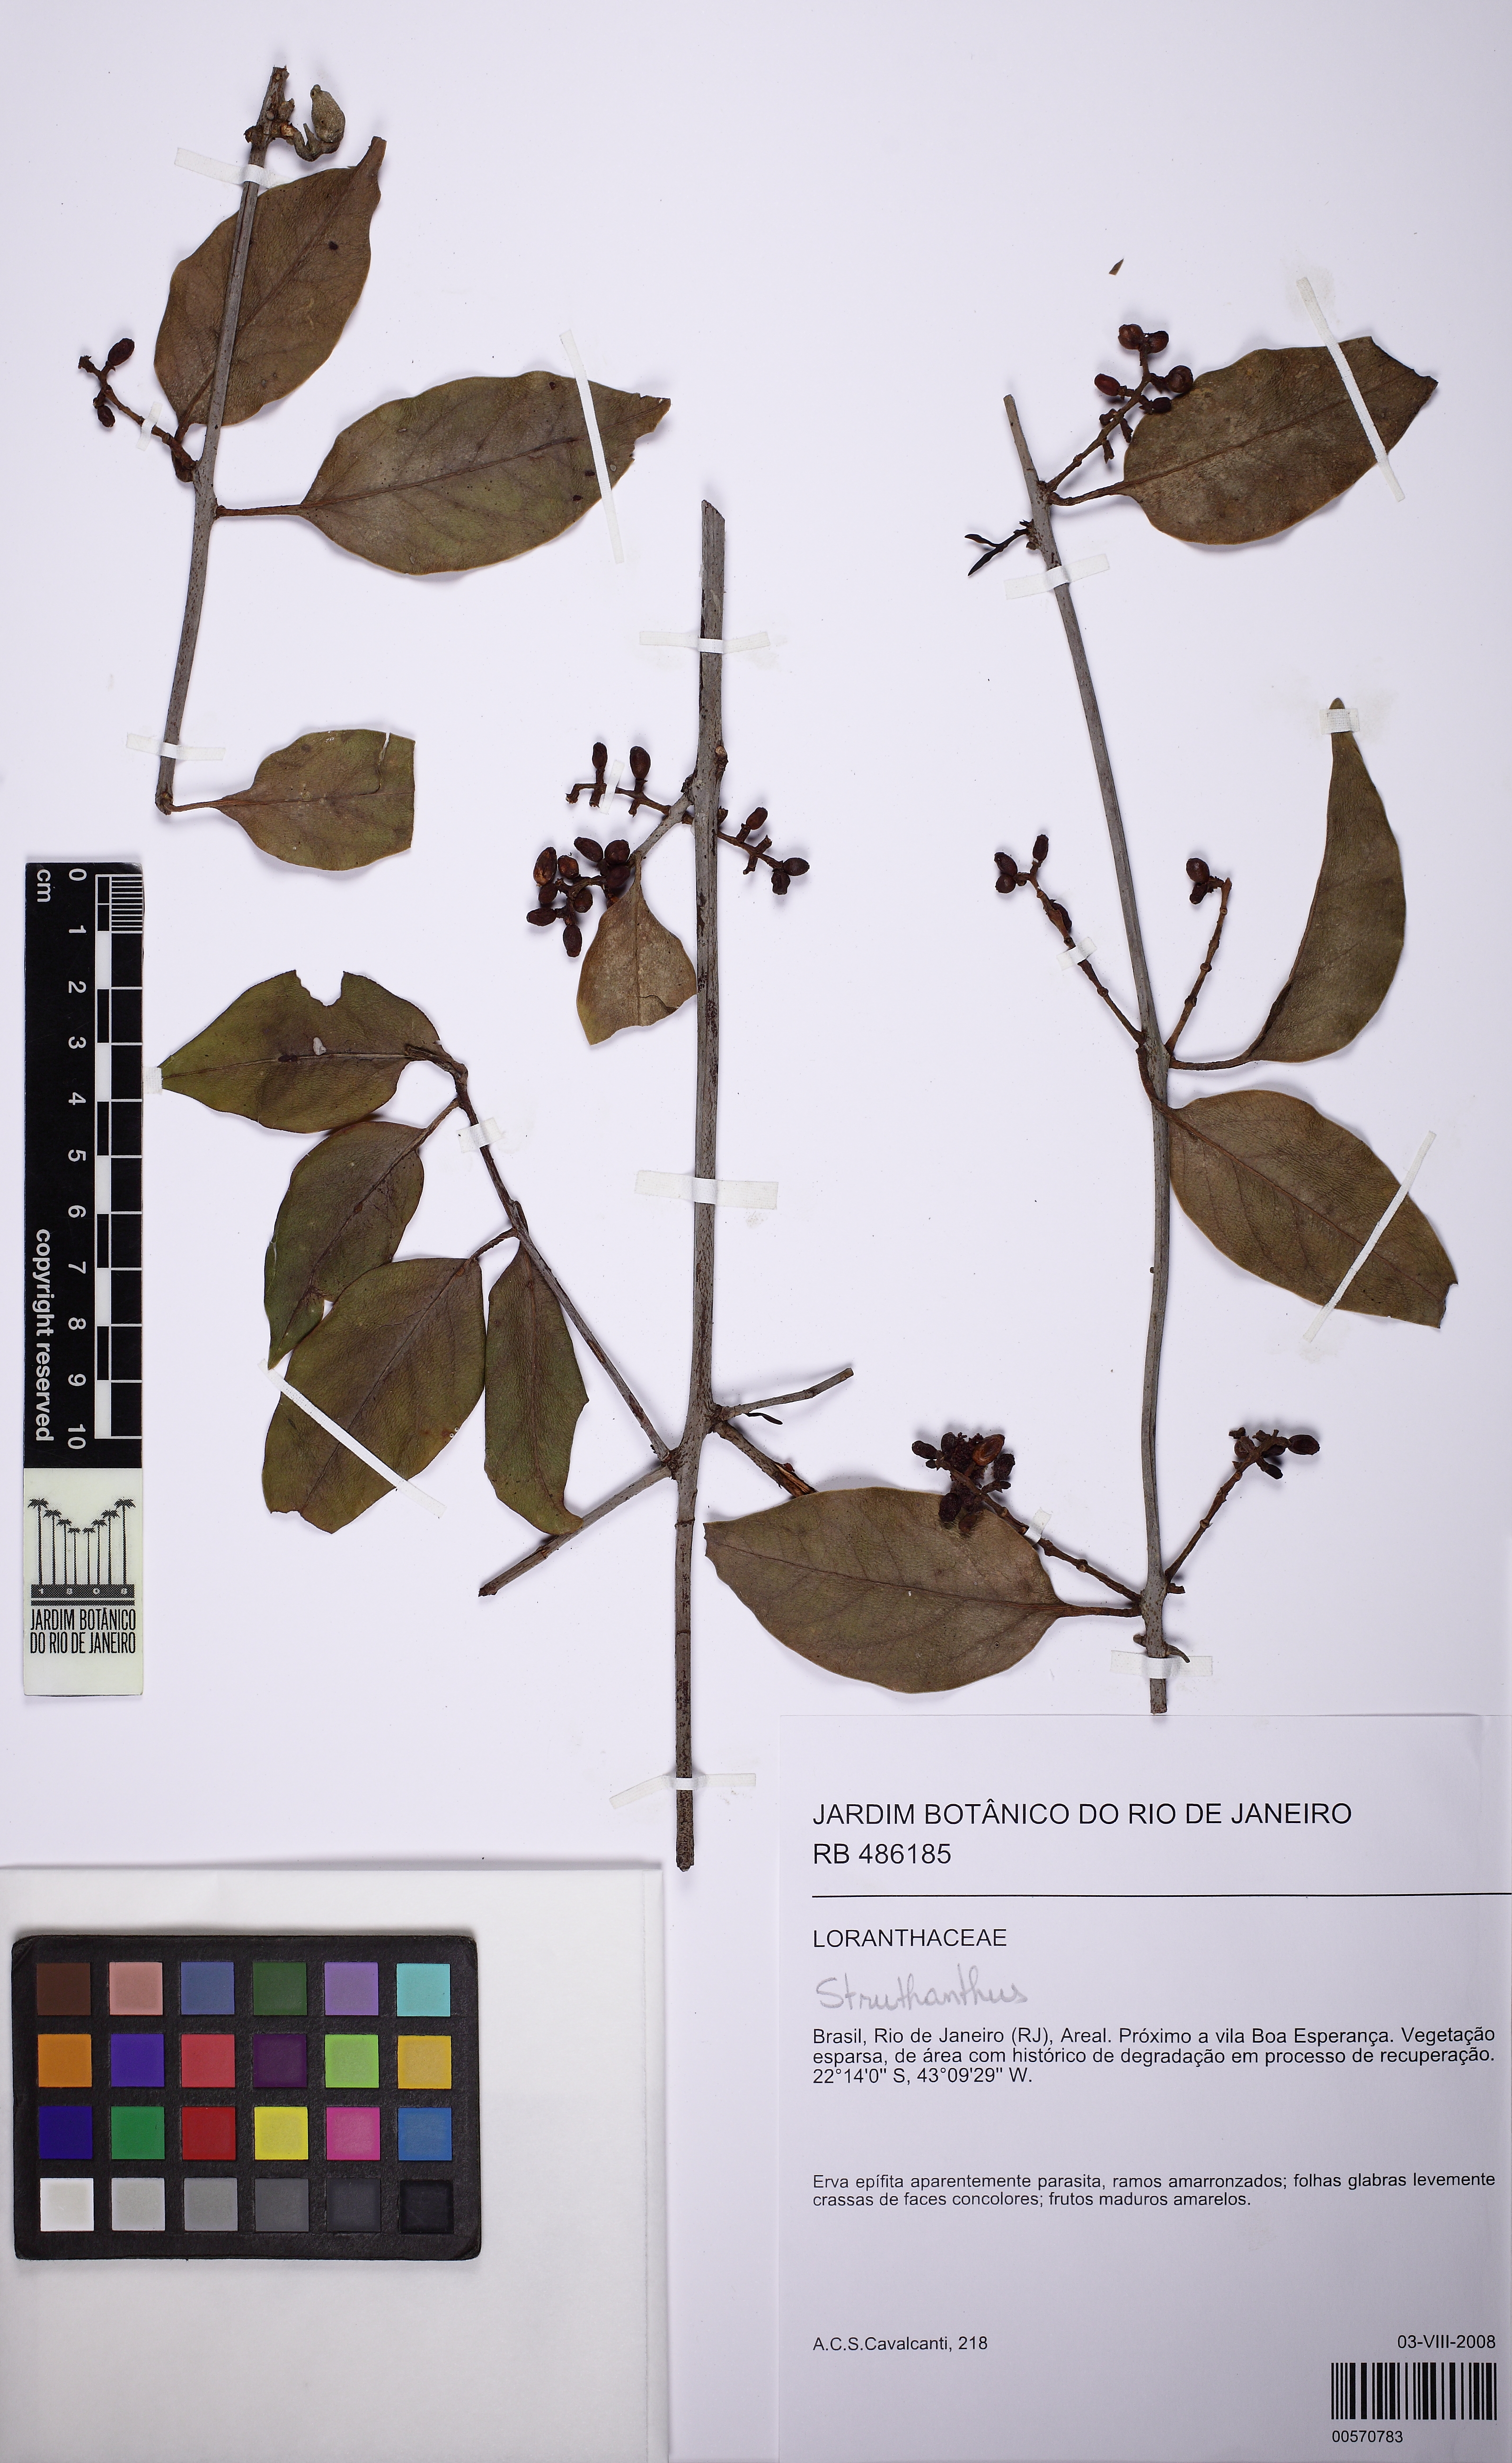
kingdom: Plantae
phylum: Tracheophyta
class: Magnoliopsida
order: Santalales
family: Loranthaceae
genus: Struthanthus
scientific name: Struthanthus
